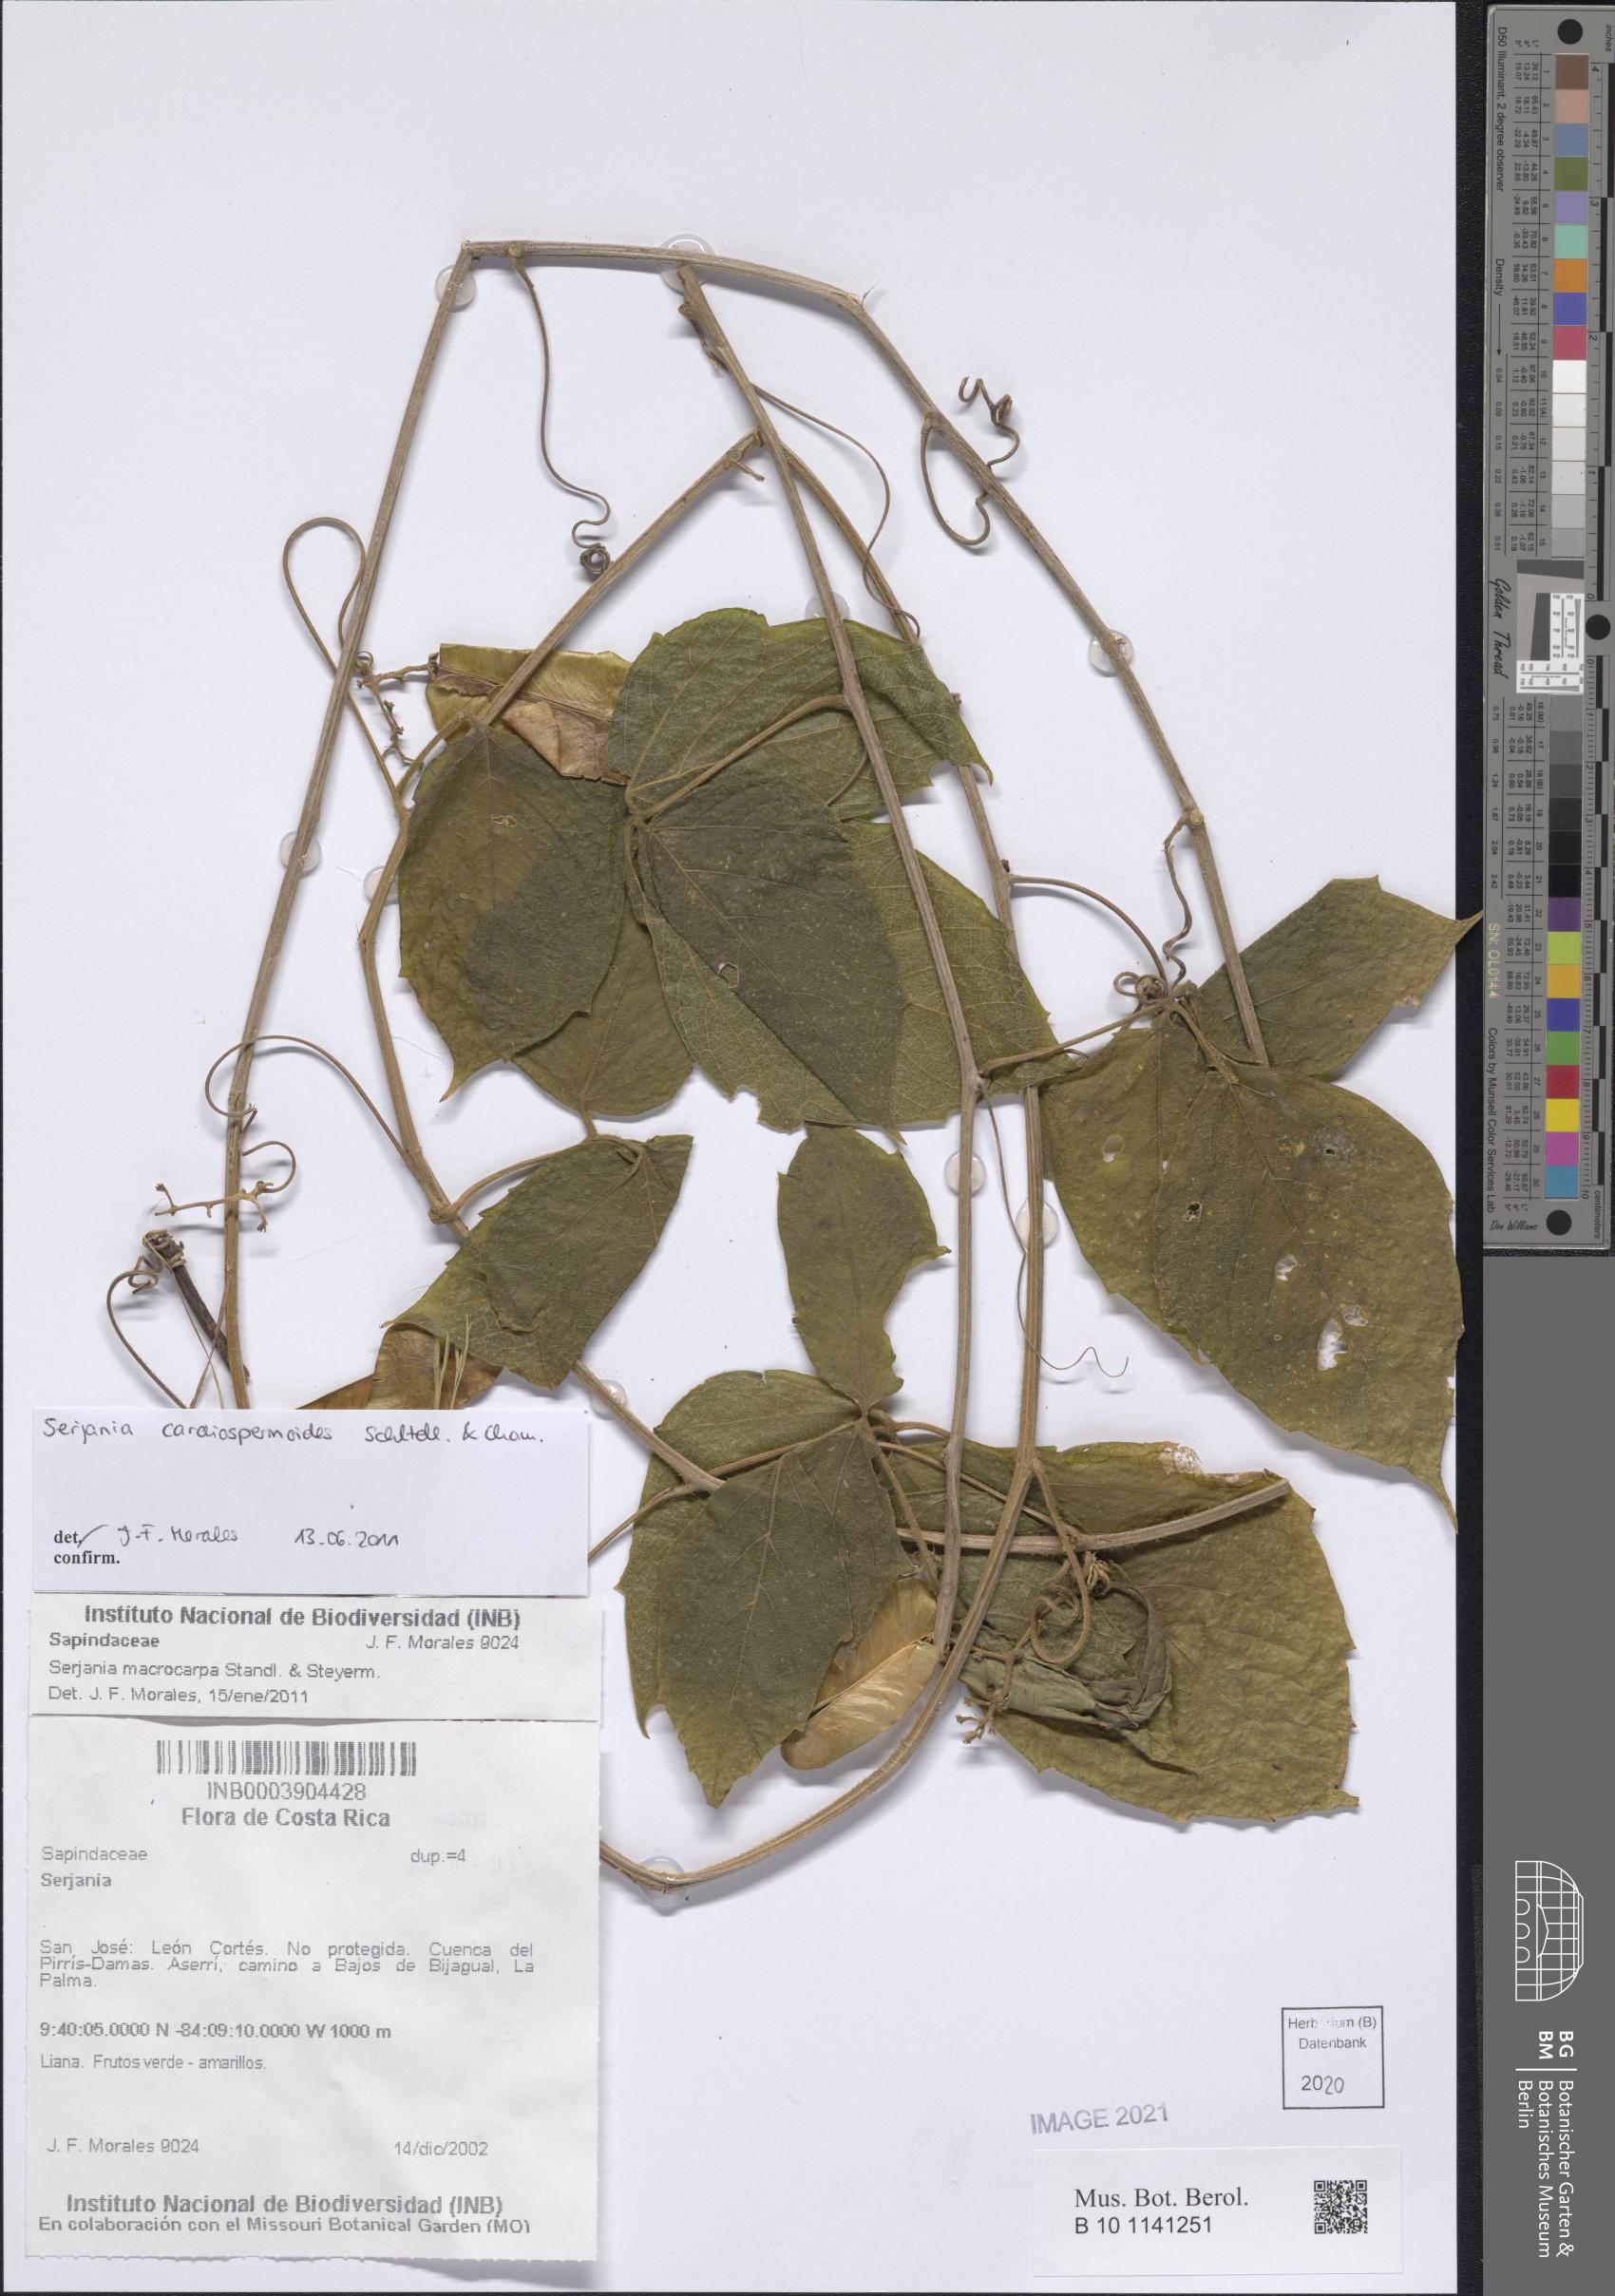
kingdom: Plantae
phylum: Tracheophyta
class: Magnoliopsida
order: Sapindales
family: Sapindaceae
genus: Serjania
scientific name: Serjania cardiospermoides
